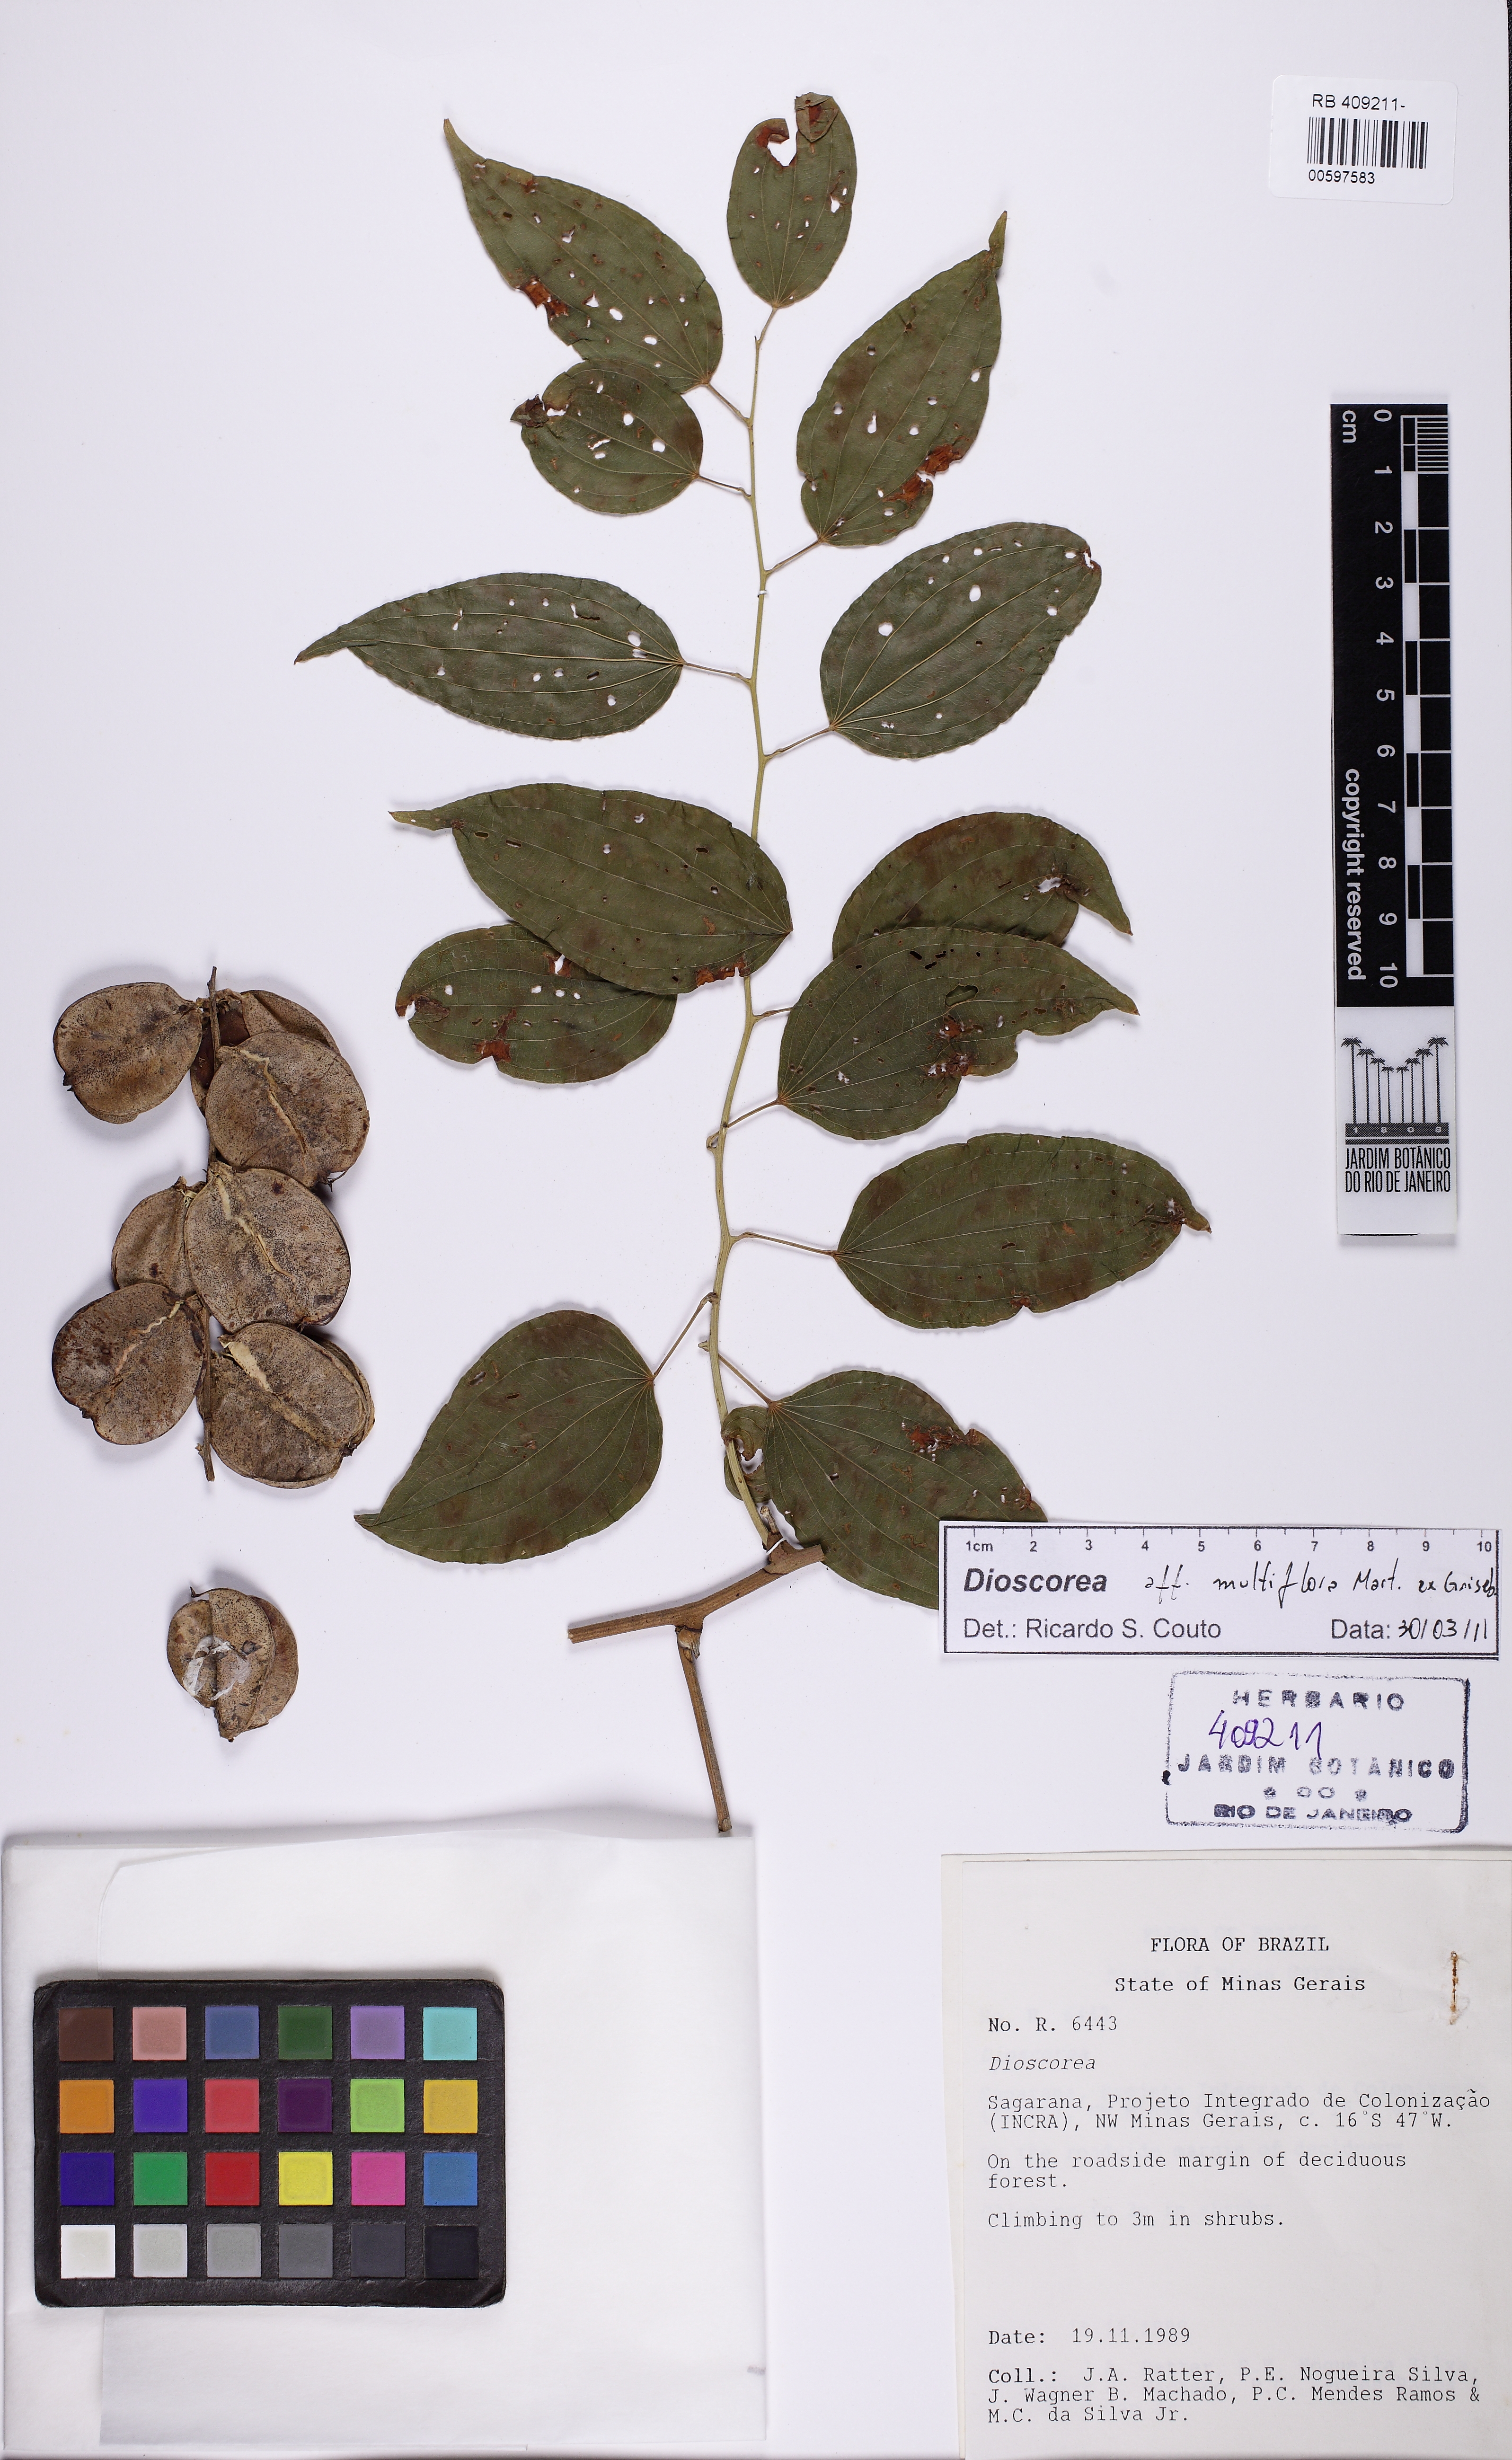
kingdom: Plantae
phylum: Tracheophyta
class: Liliopsida
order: Dioscoreales
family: Dioscoreaceae
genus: Dioscorea
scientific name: Dioscorea acanthogene
